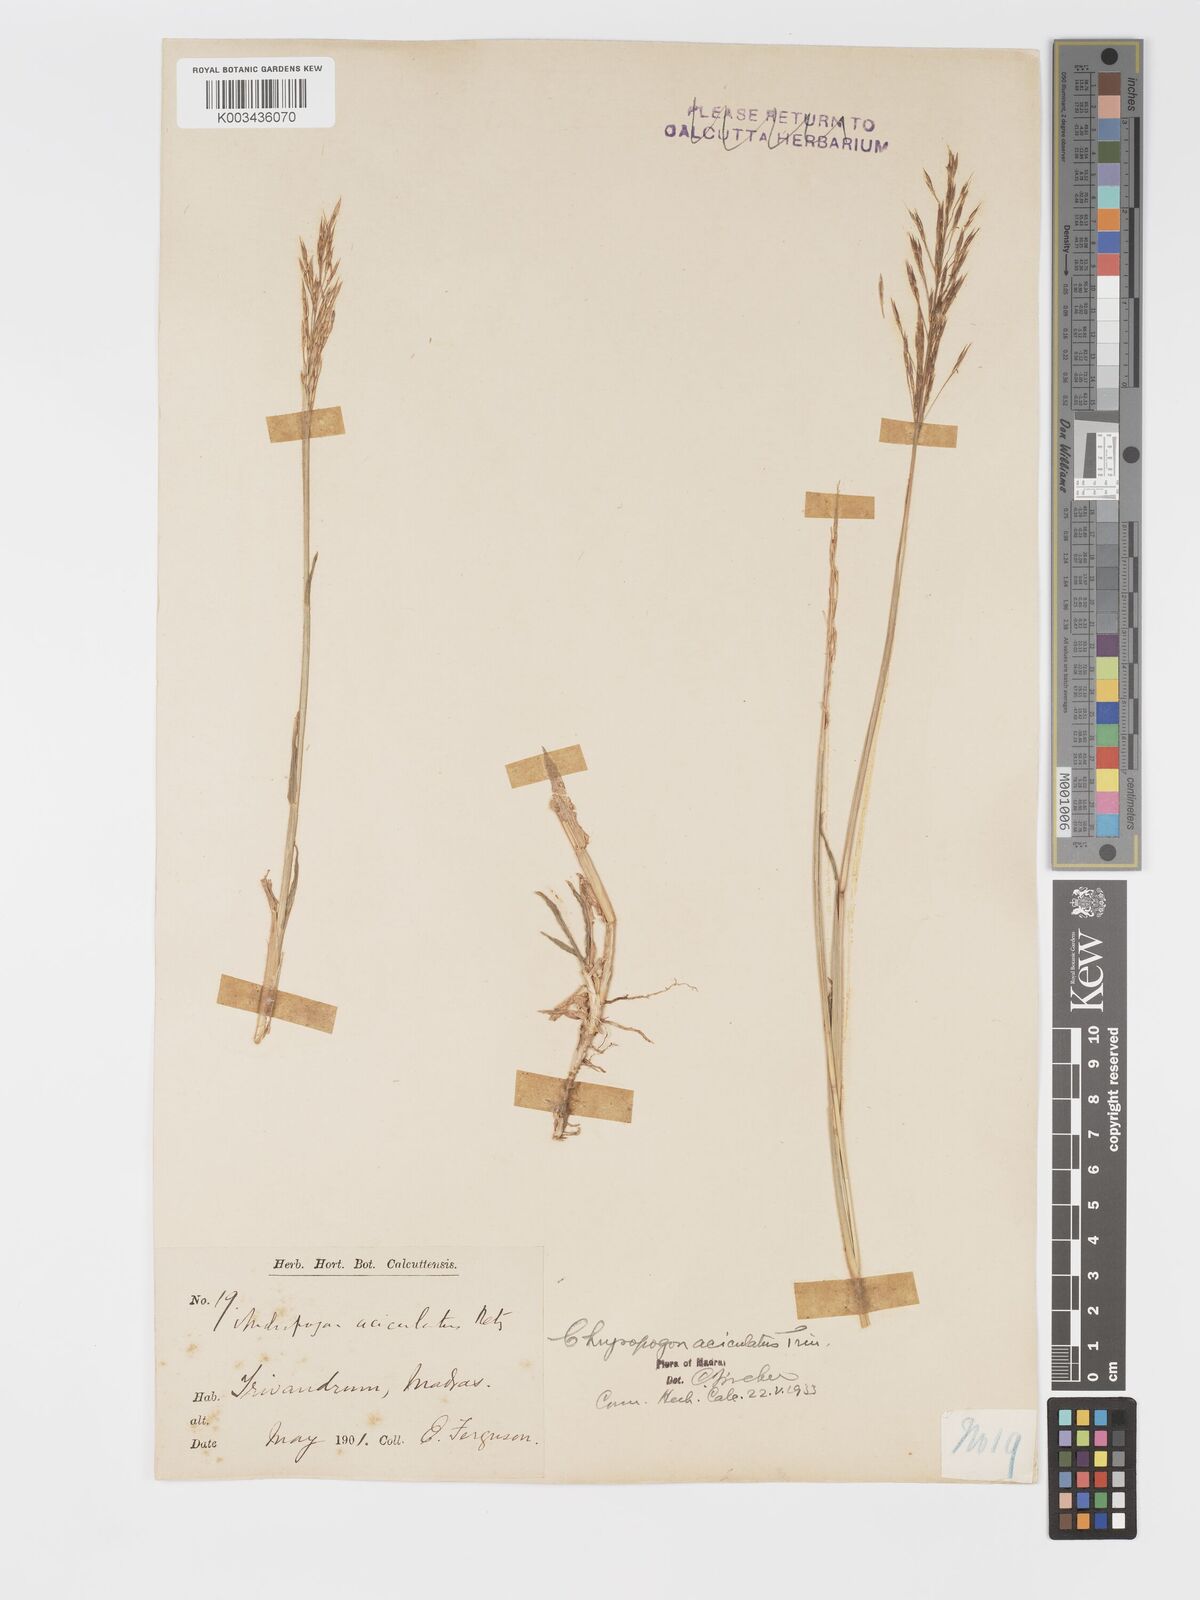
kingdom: Plantae
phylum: Tracheophyta
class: Liliopsida
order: Poales
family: Poaceae
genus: Chrysopogon
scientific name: Chrysopogon aciculatus
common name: Pilipiliula
